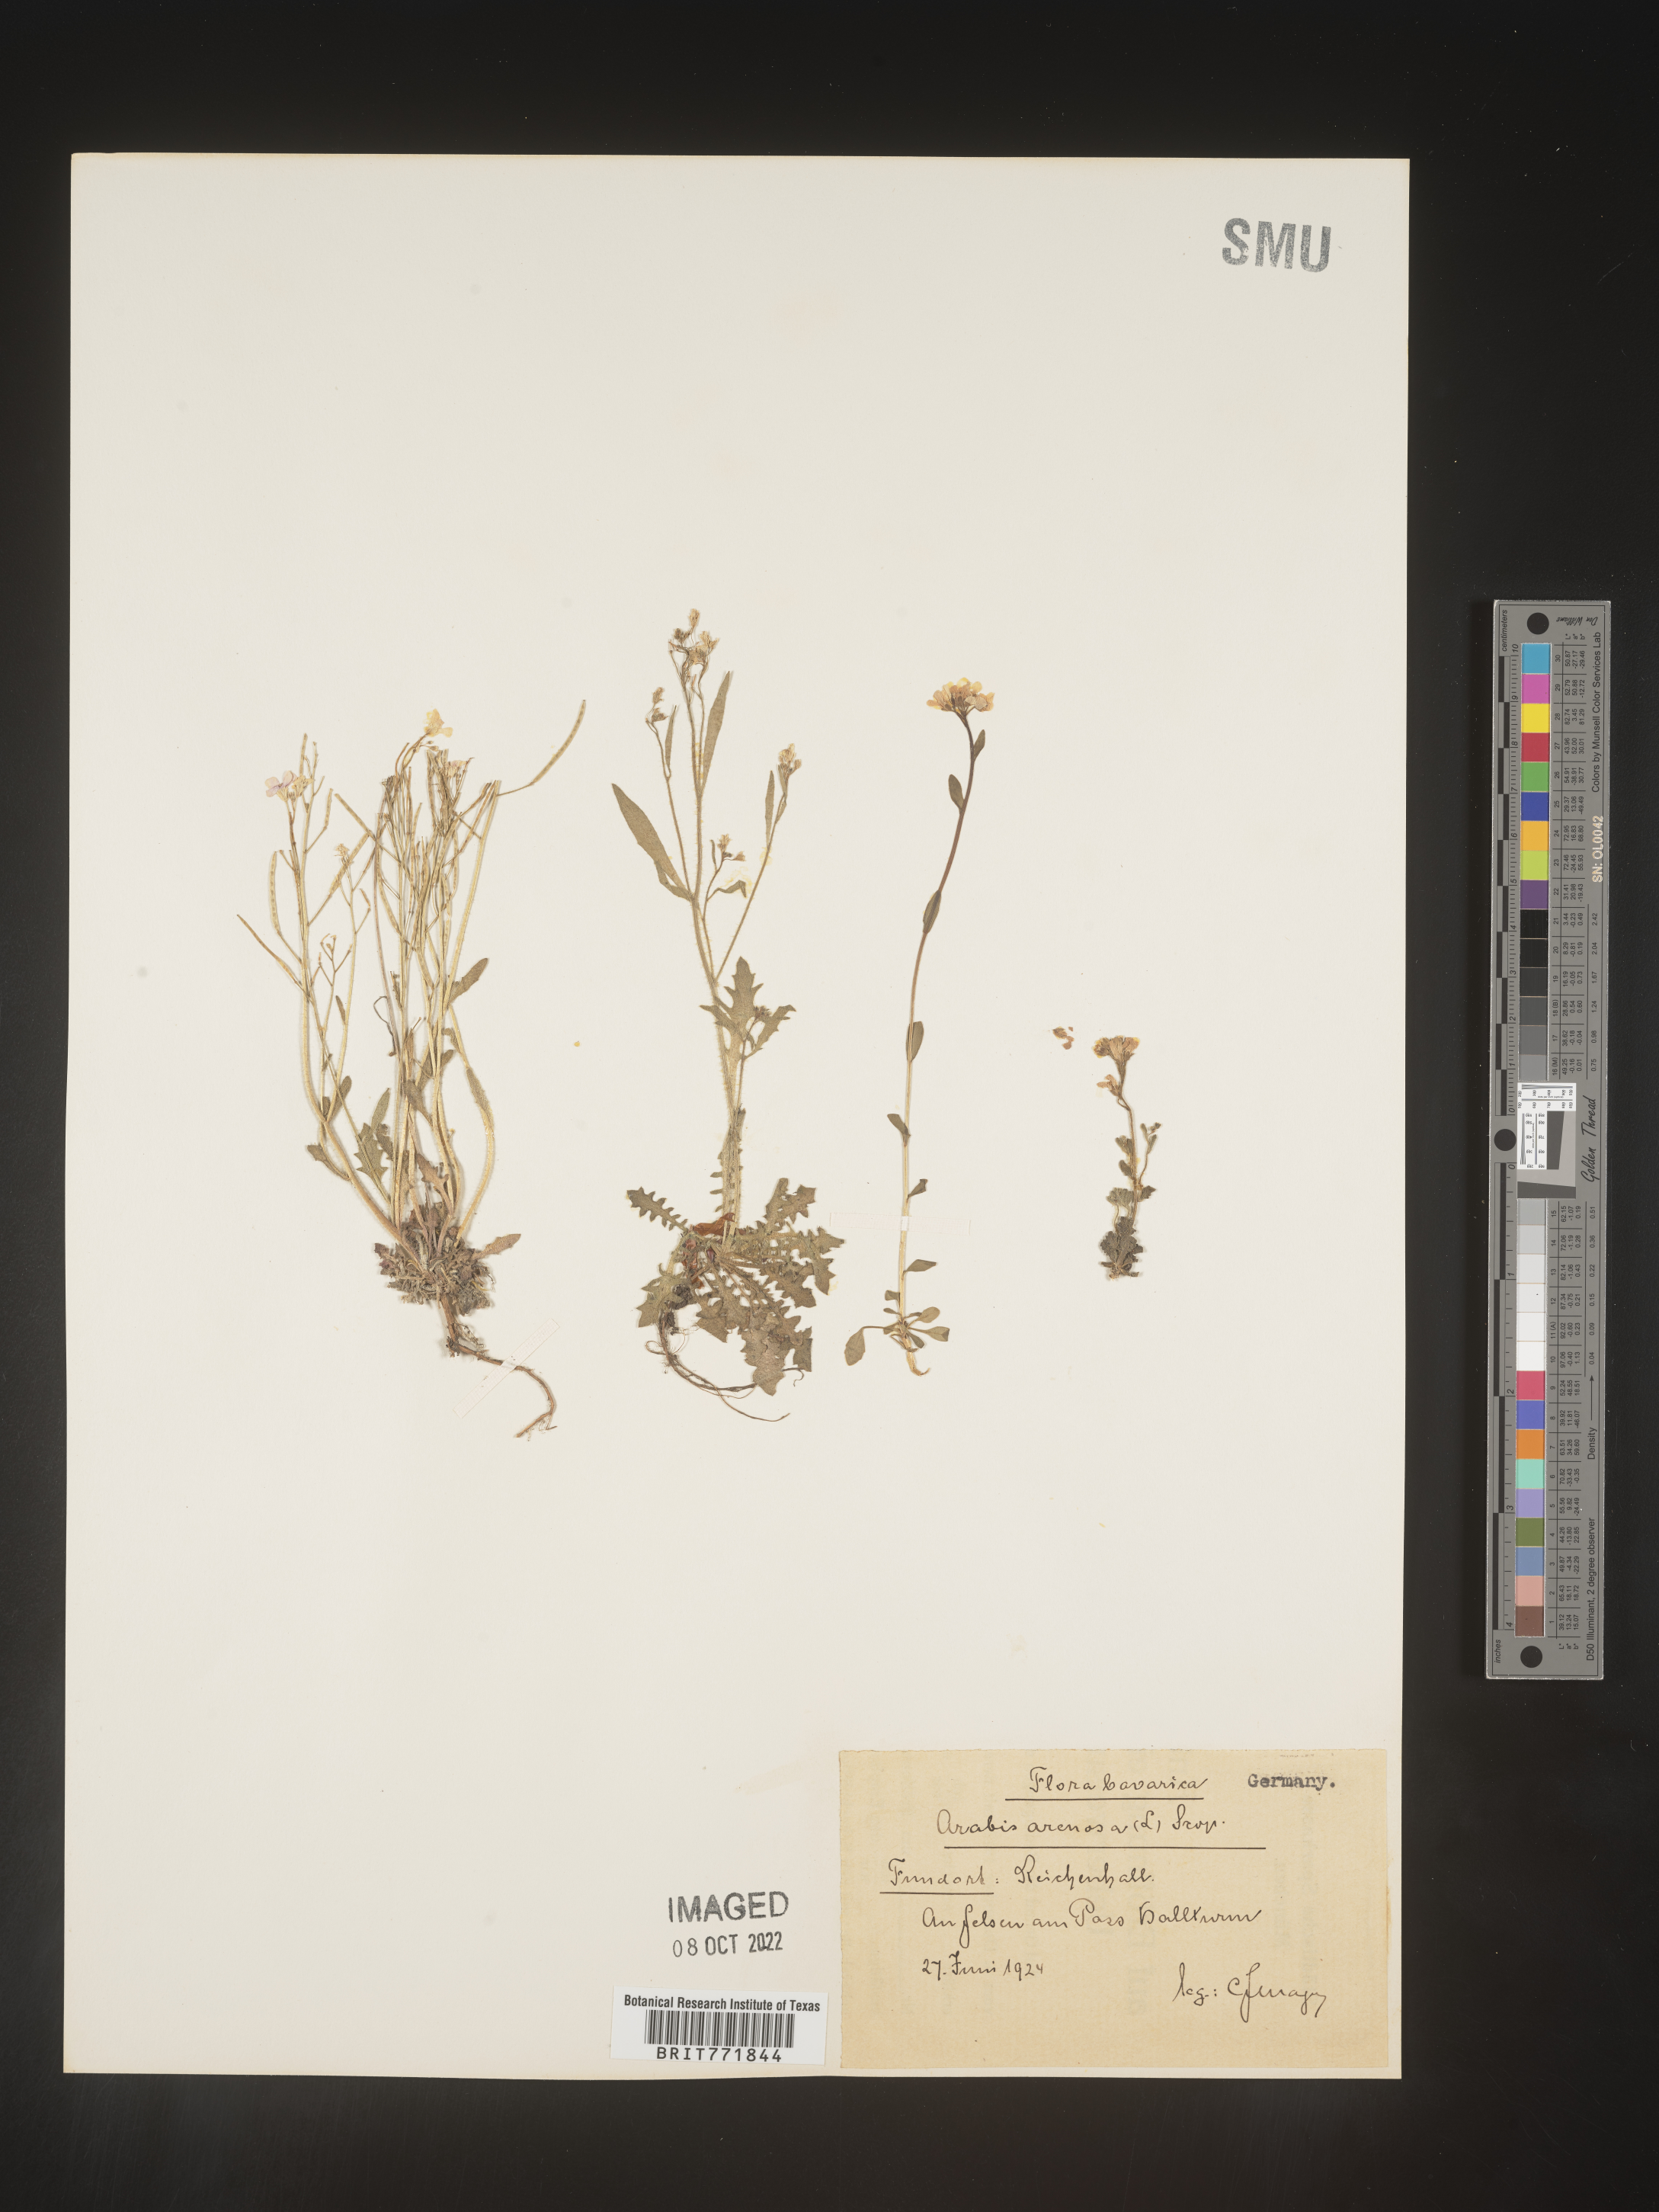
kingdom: Plantae
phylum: Tracheophyta
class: Magnoliopsida
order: Brassicales
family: Brassicaceae
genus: Arabis
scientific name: Arabis
